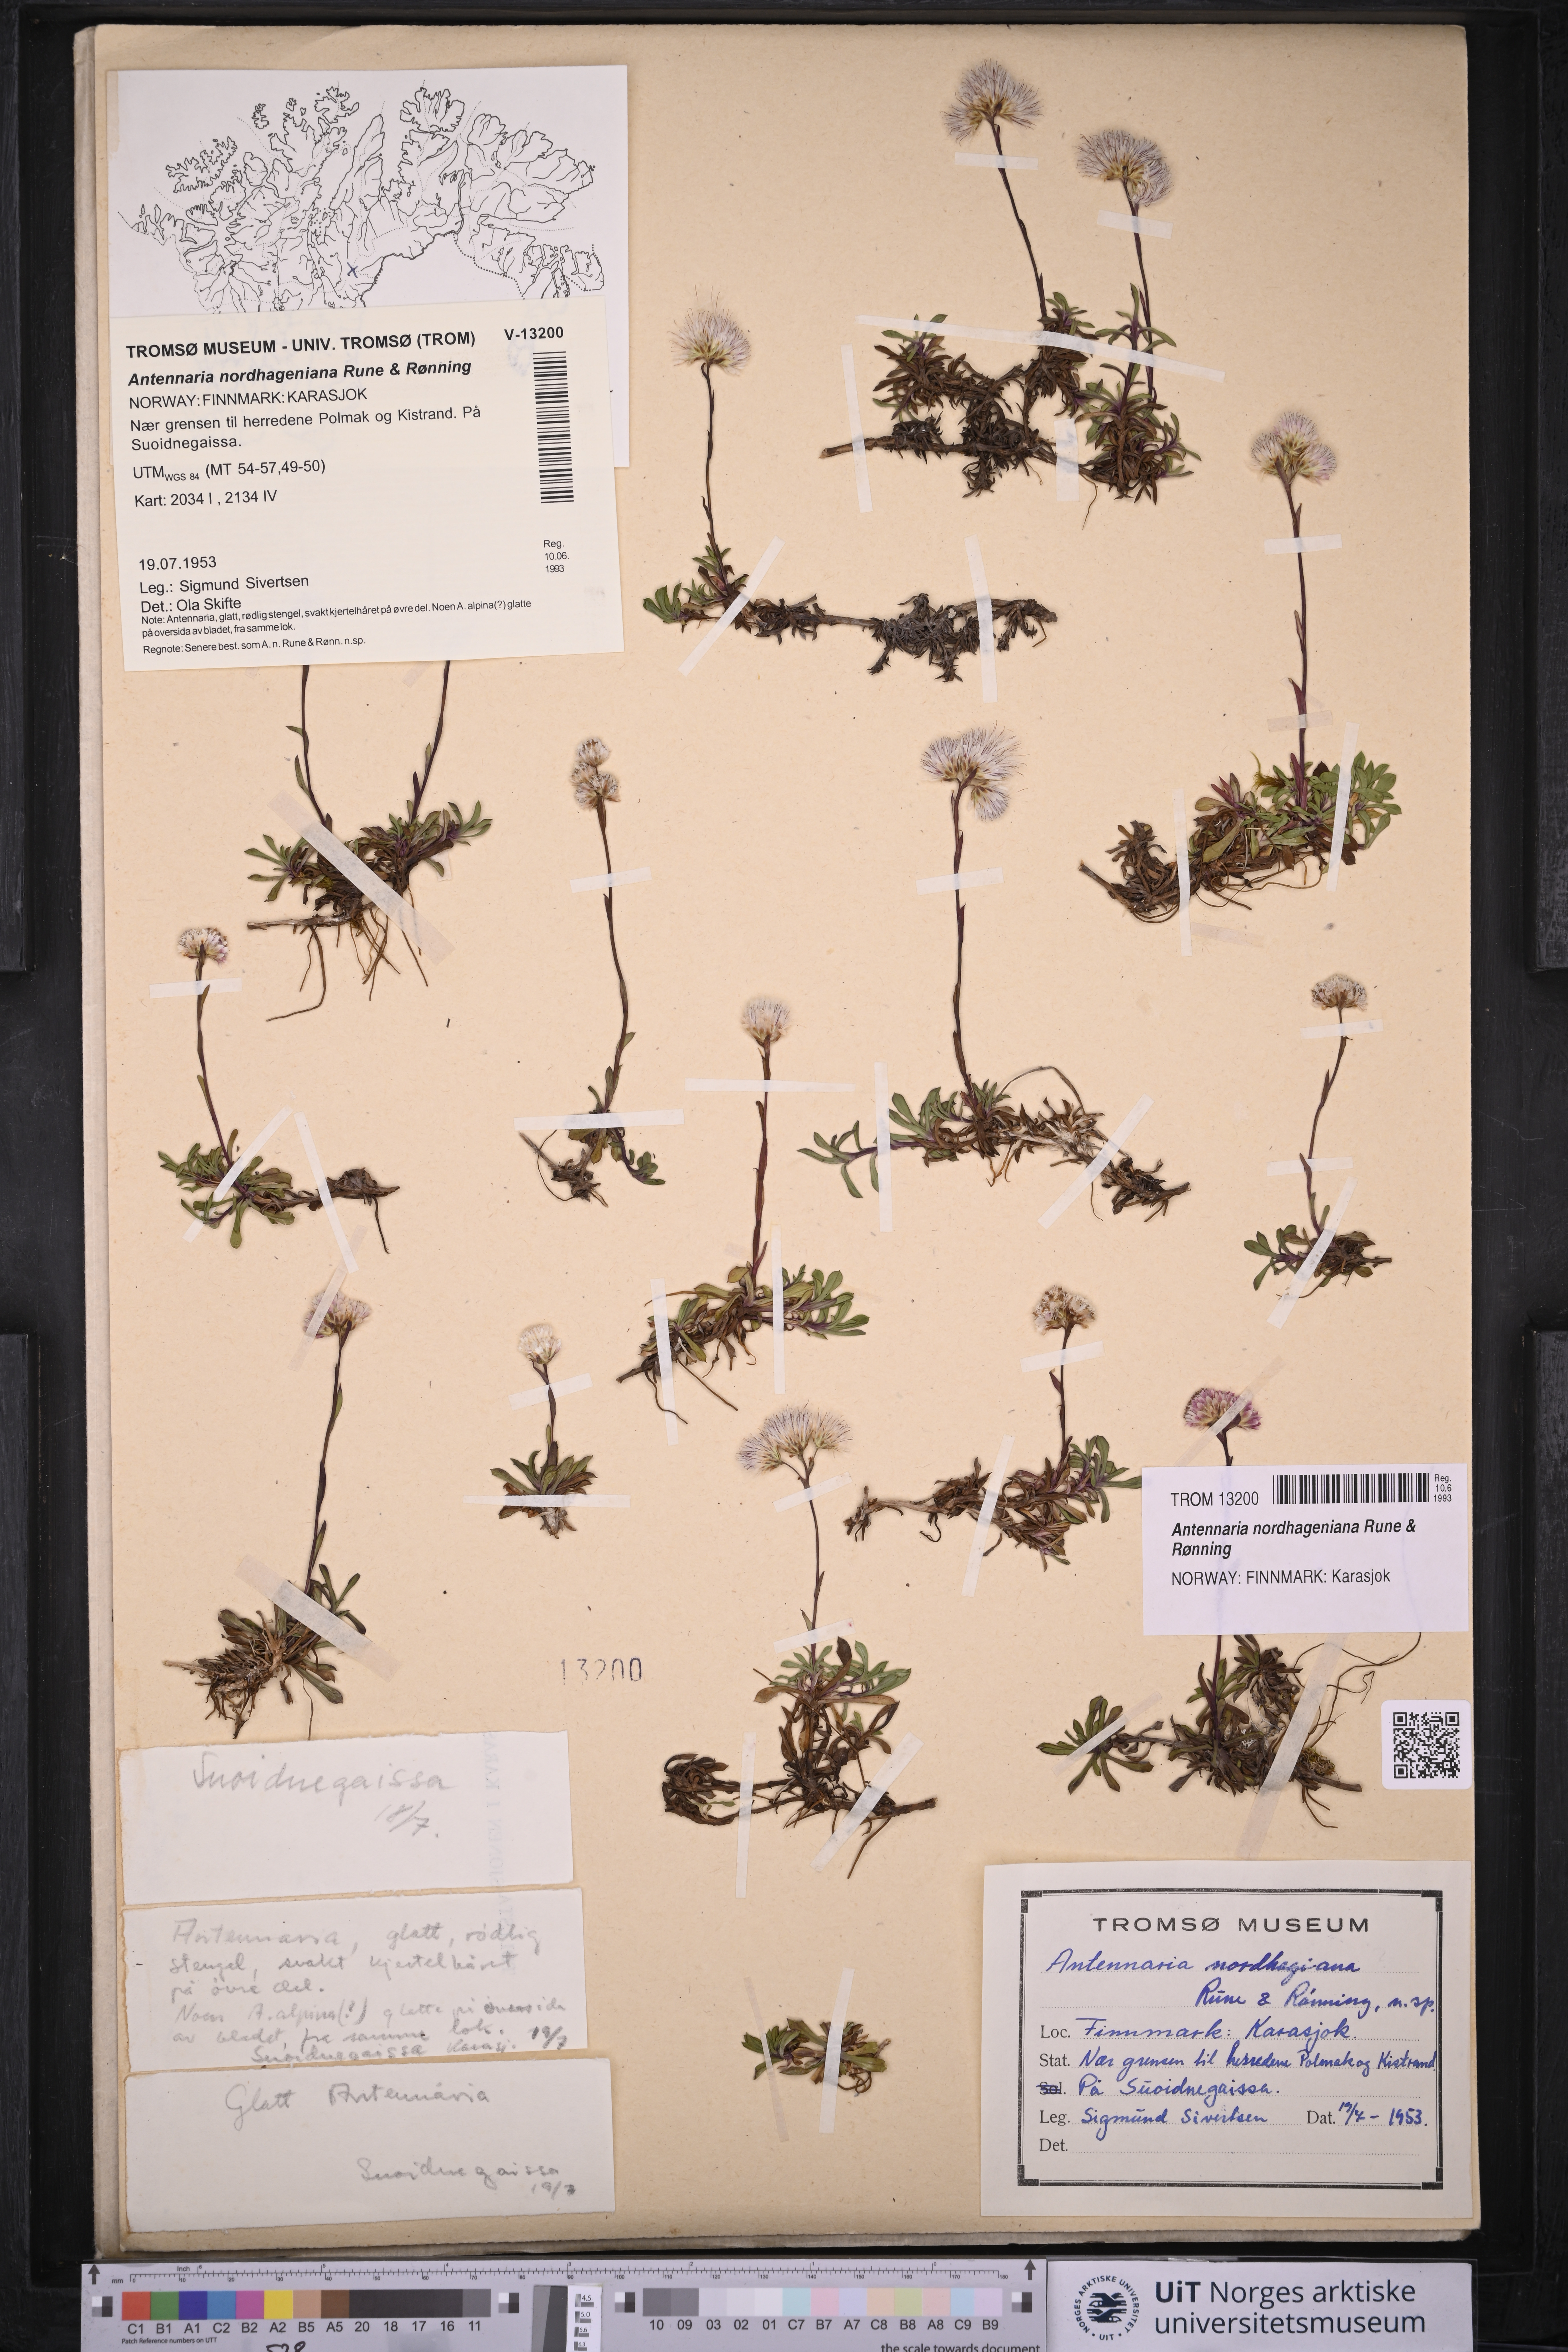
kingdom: Plantae
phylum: Tracheophyta
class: Magnoliopsida
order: Asterales
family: Asteraceae
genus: Antennaria
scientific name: Antennaria nordhageniana
